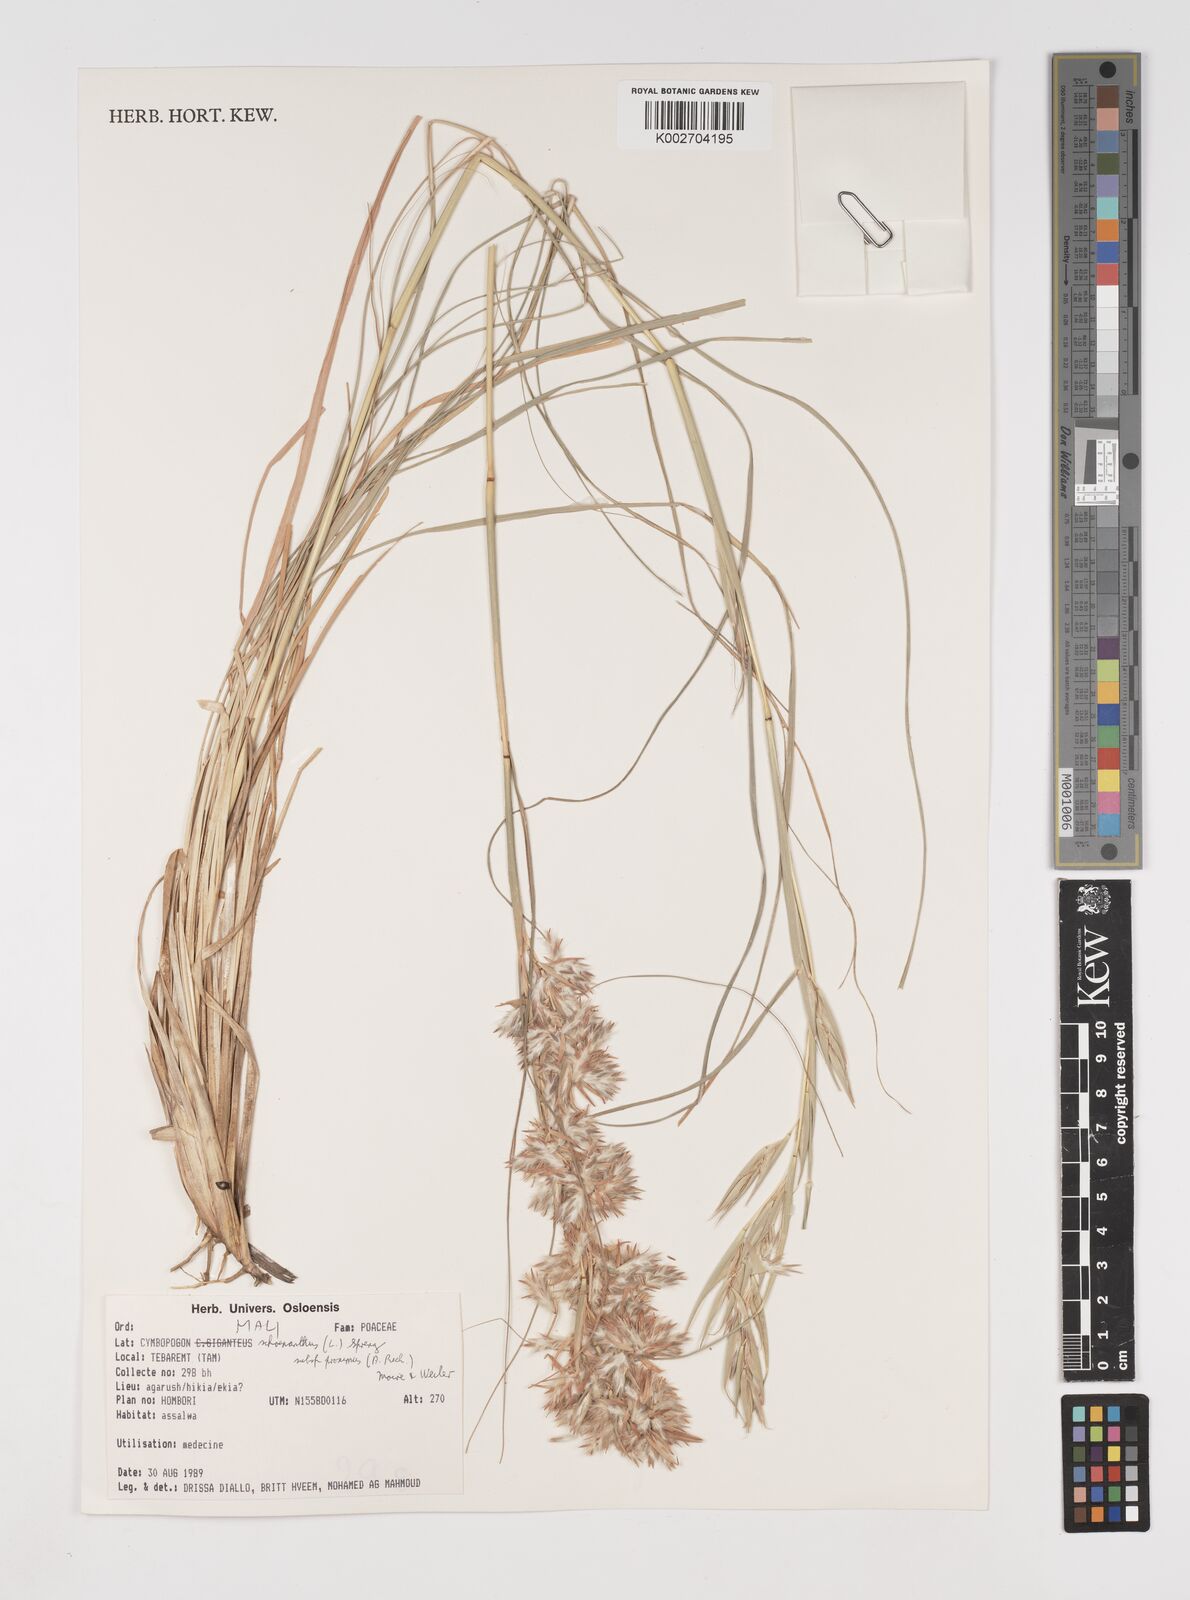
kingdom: Plantae
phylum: Tracheophyta
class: Liliopsida
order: Poales
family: Poaceae
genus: Cymbopogon
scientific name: Cymbopogon schoenanthus
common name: Geranium grass
